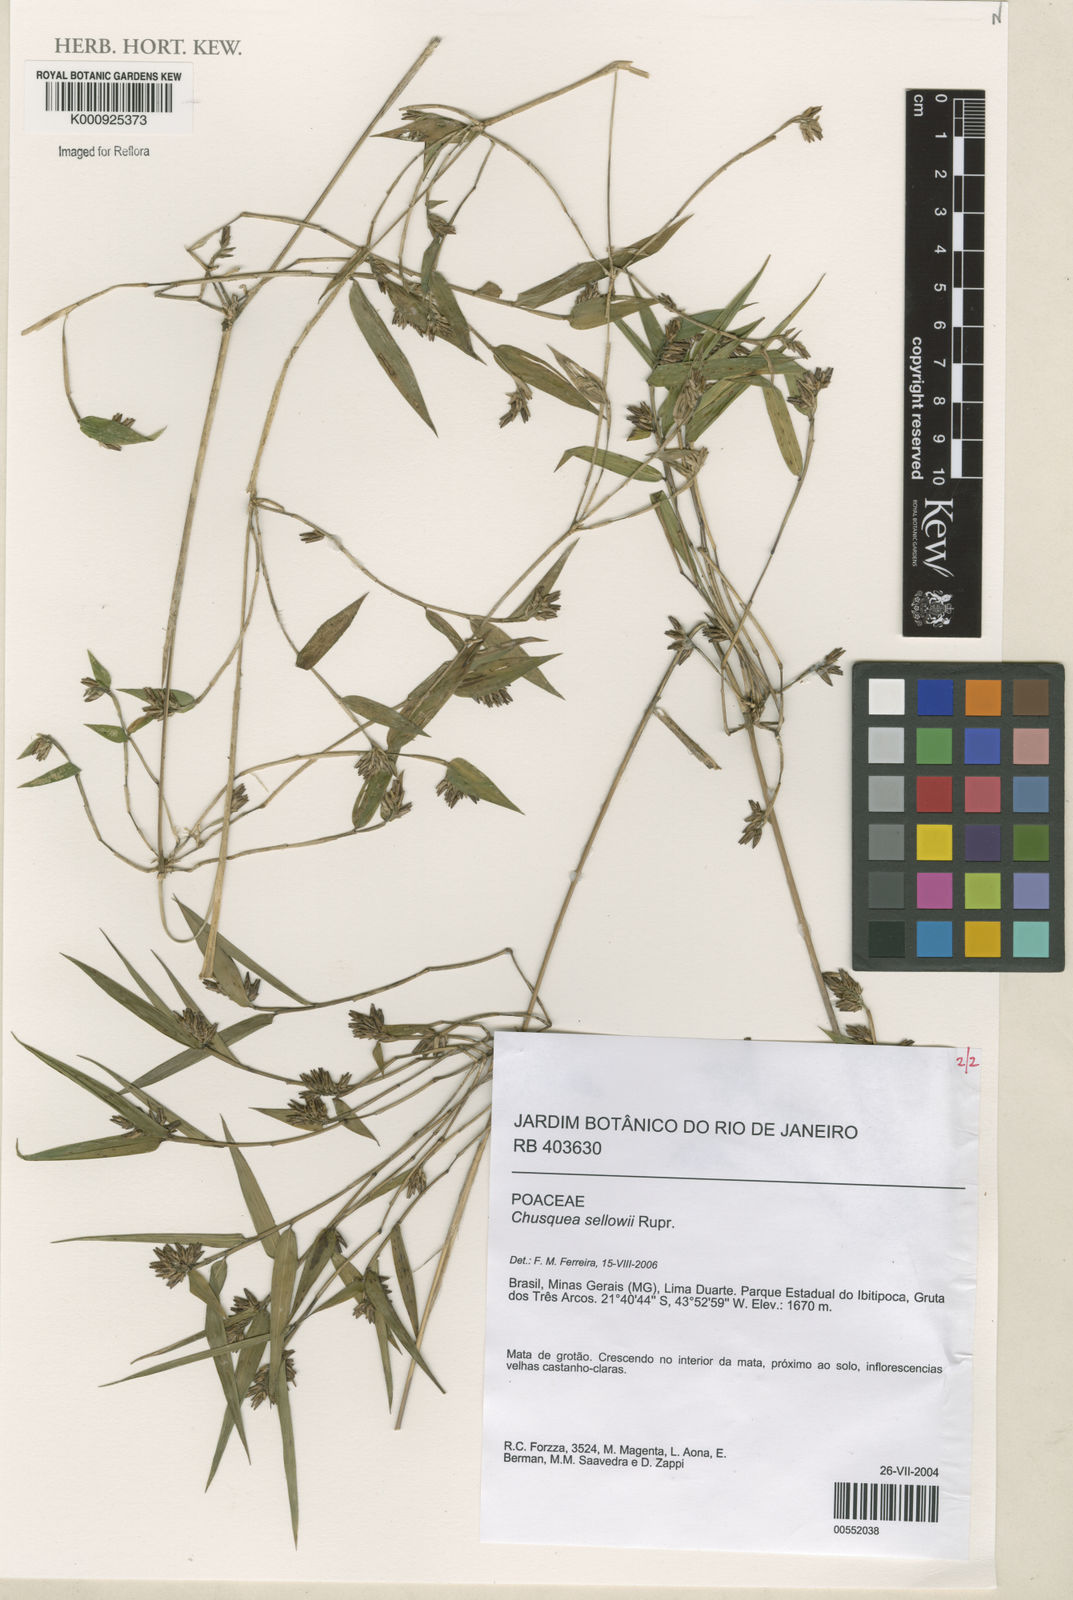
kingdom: Plantae
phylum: Tracheophyta
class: Liliopsida
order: Poales
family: Poaceae
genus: Chusquea
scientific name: Chusquea sellowii
